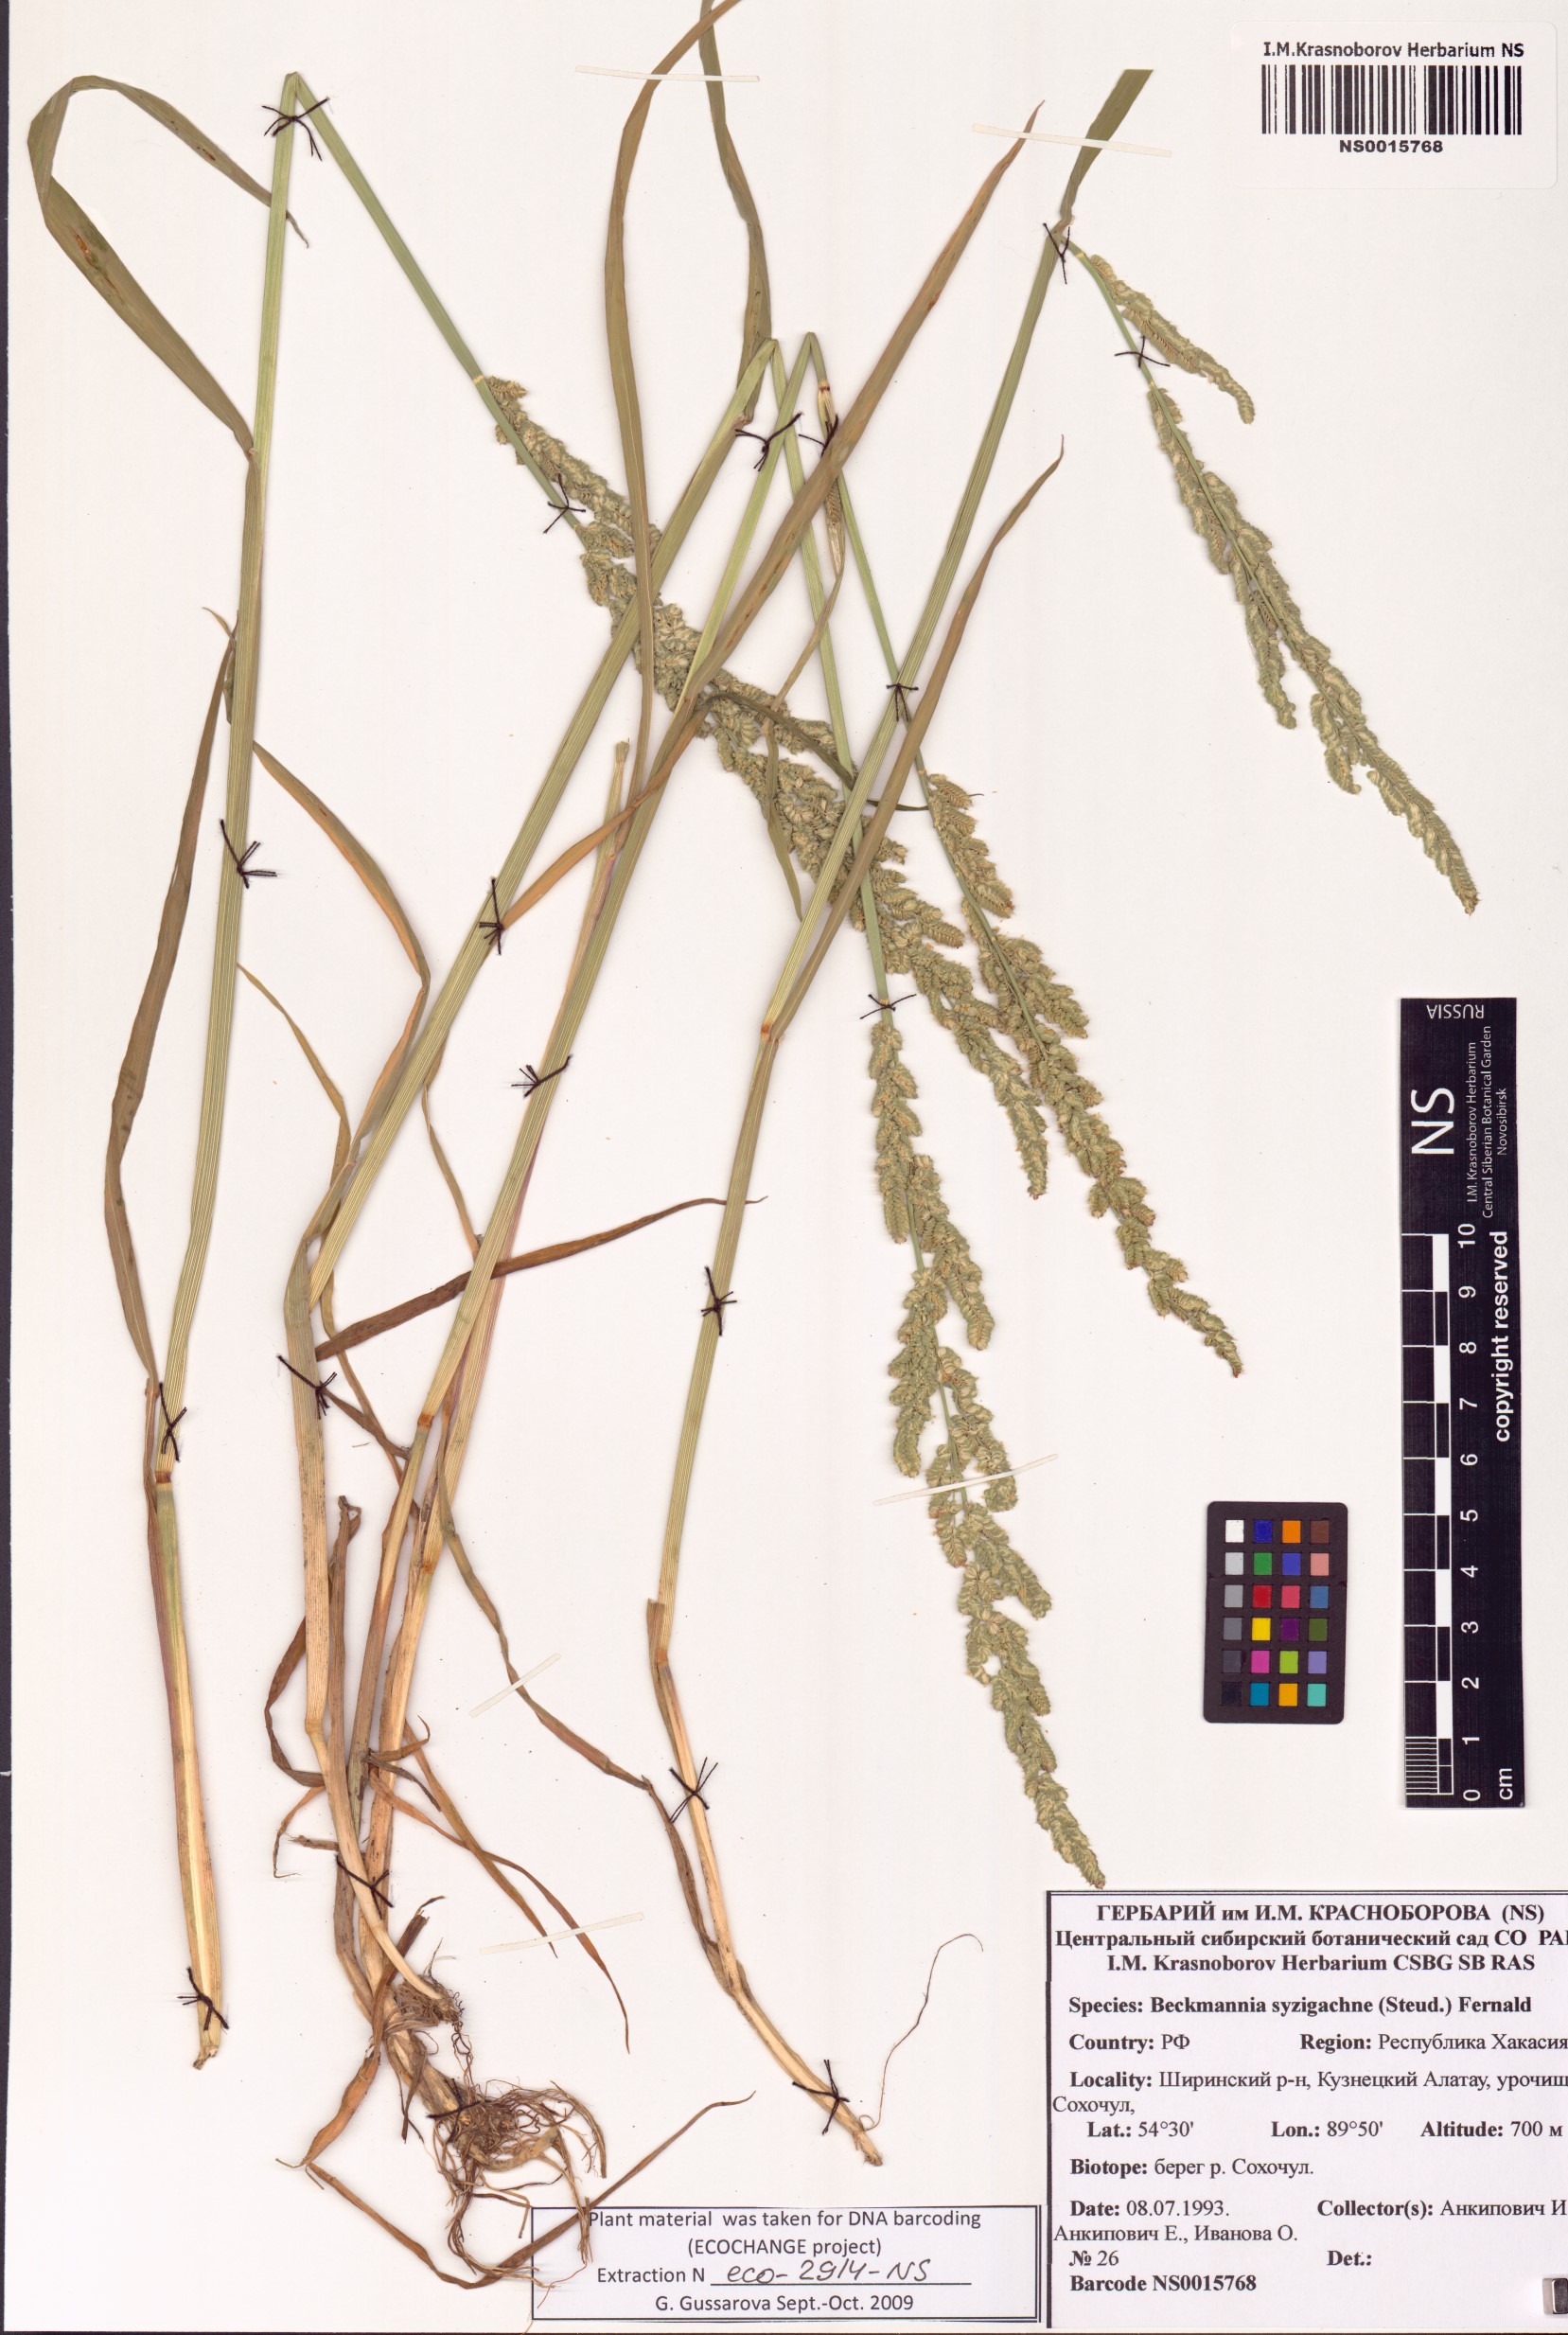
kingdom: Plantae
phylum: Tracheophyta
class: Liliopsida
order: Poales
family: Poaceae
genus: Beckmannia
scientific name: Beckmannia syzigachne
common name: American slough-grass
